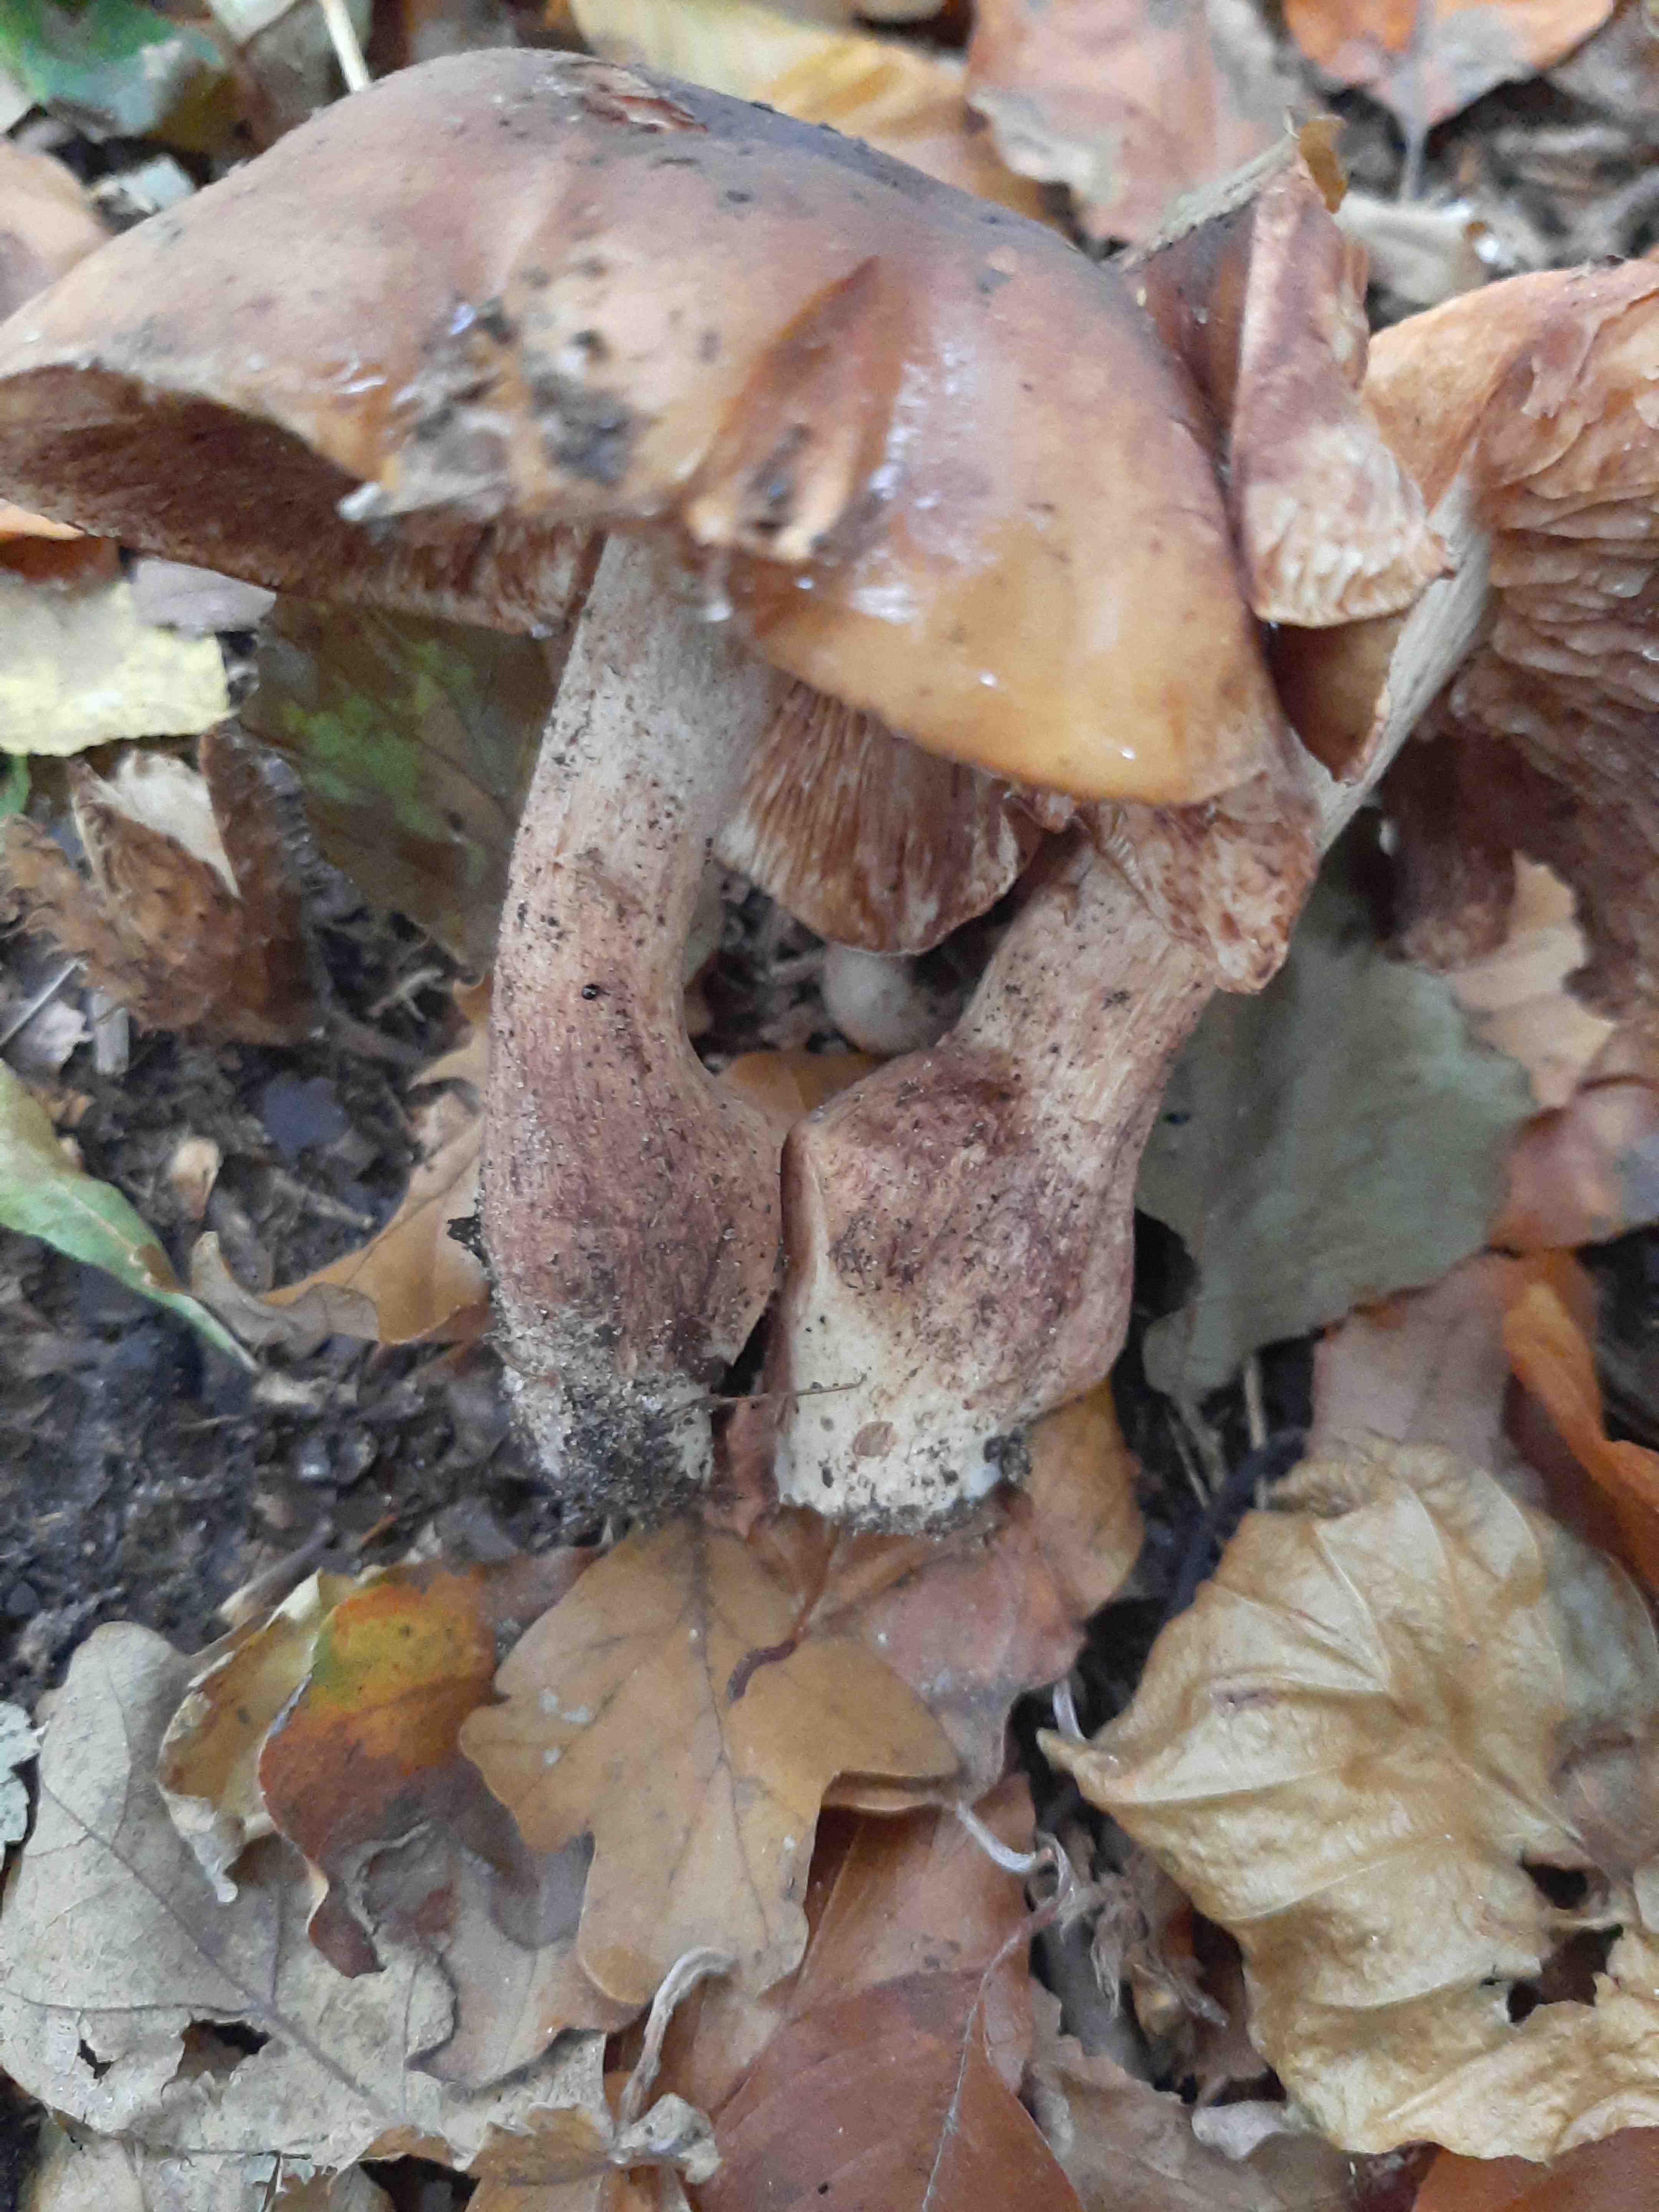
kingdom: Fungi
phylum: Basidiomycota
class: Agaricomycetes
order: Agaricales
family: Tricholomataceae
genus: Tricholoma
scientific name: Tricholoma ustale
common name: sveden ridderhat
